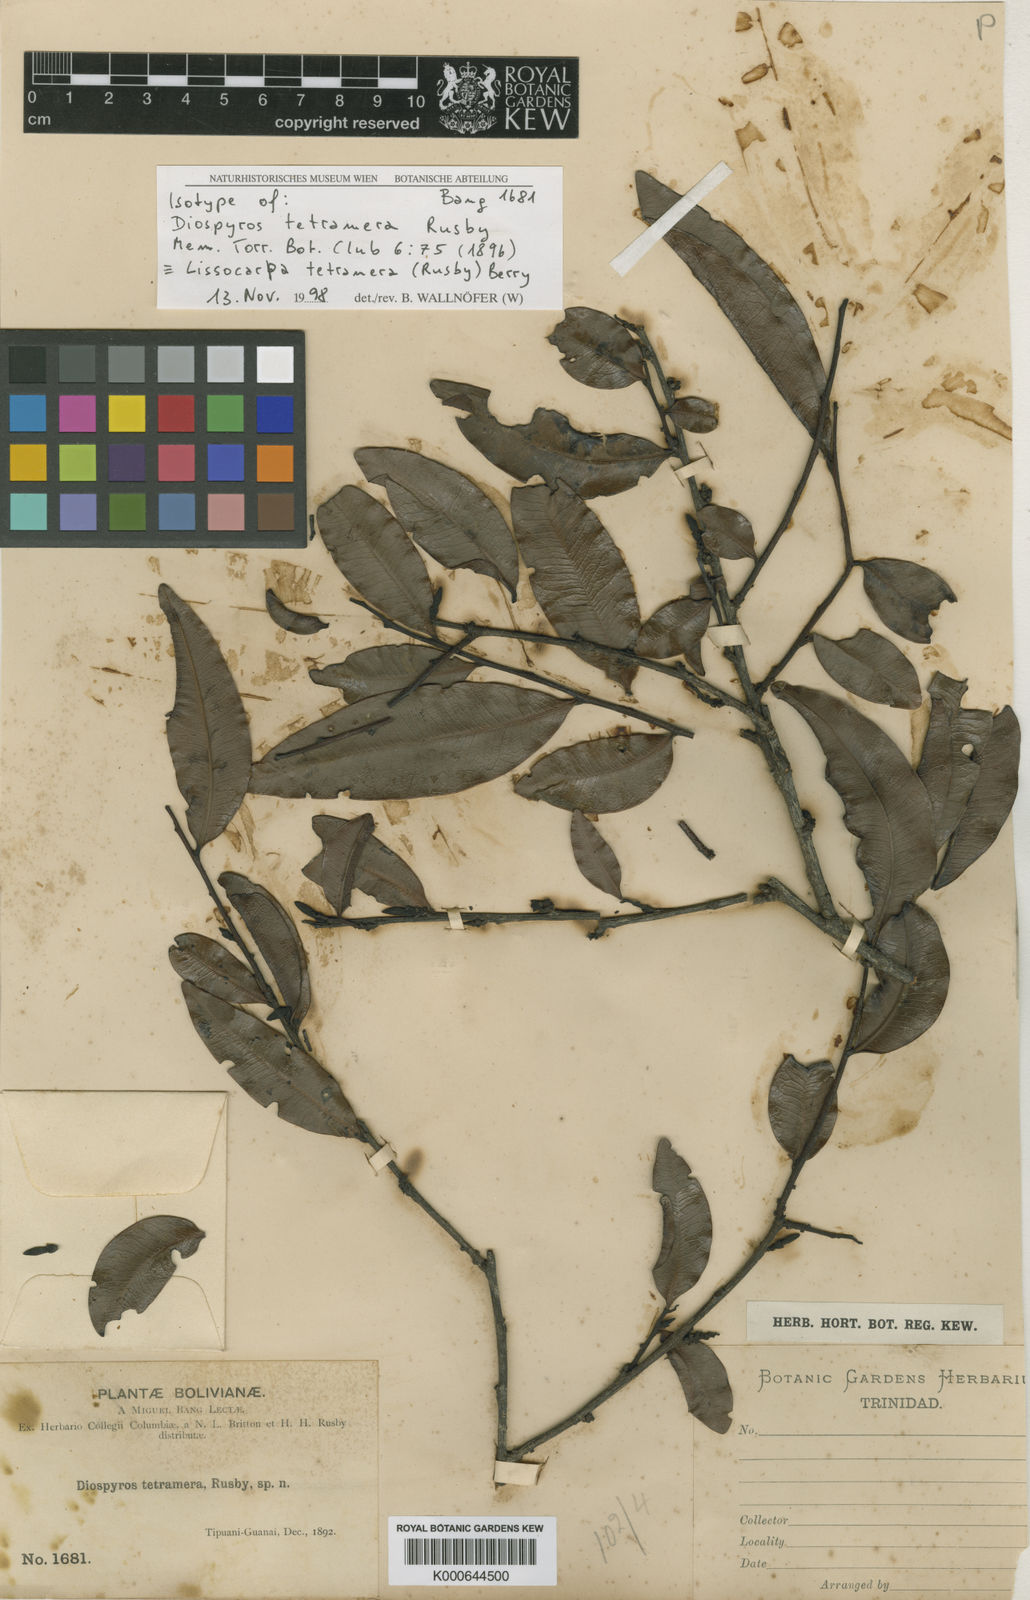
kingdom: Plantae
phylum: Tracheophyta
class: Magnoliopsida
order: Ericales
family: Ebenaceae
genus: Lissocarpa
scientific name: Lissocarpa tetramera
